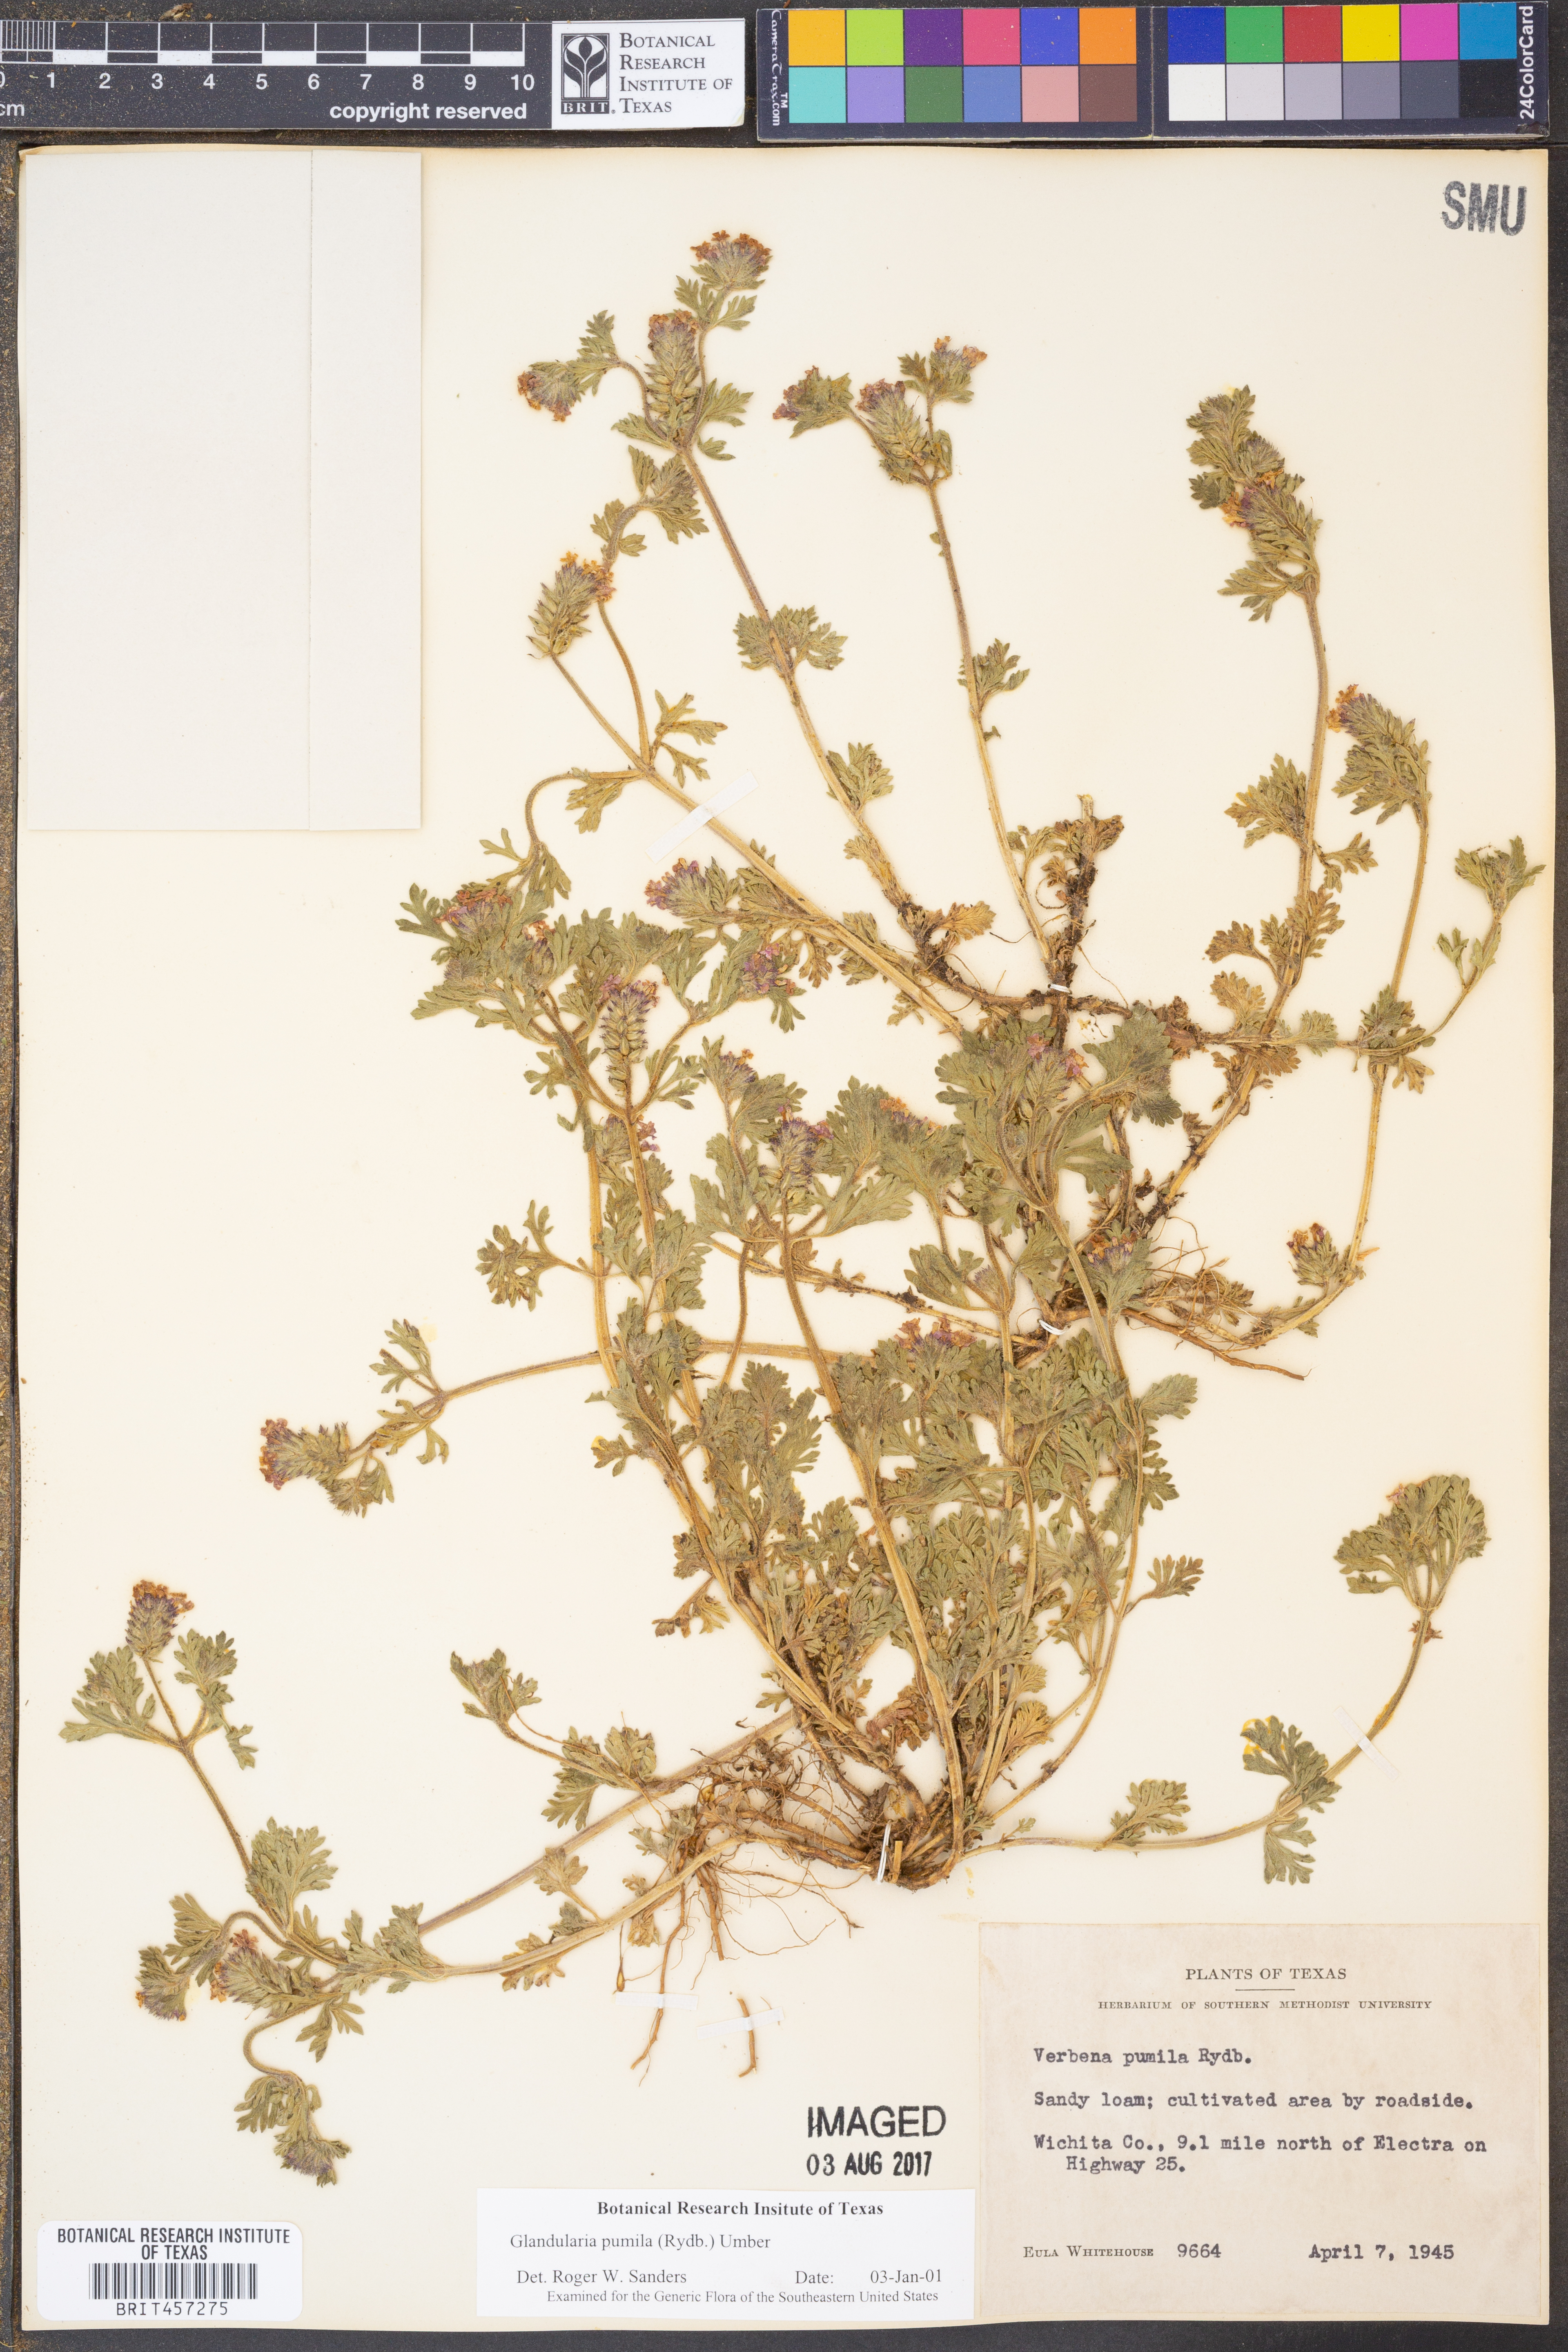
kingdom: Plantae
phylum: Tracheophyta
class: Magnoliopsida
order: Lamiales
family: Verbenaceae
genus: Verbena
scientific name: Verbena pumila
